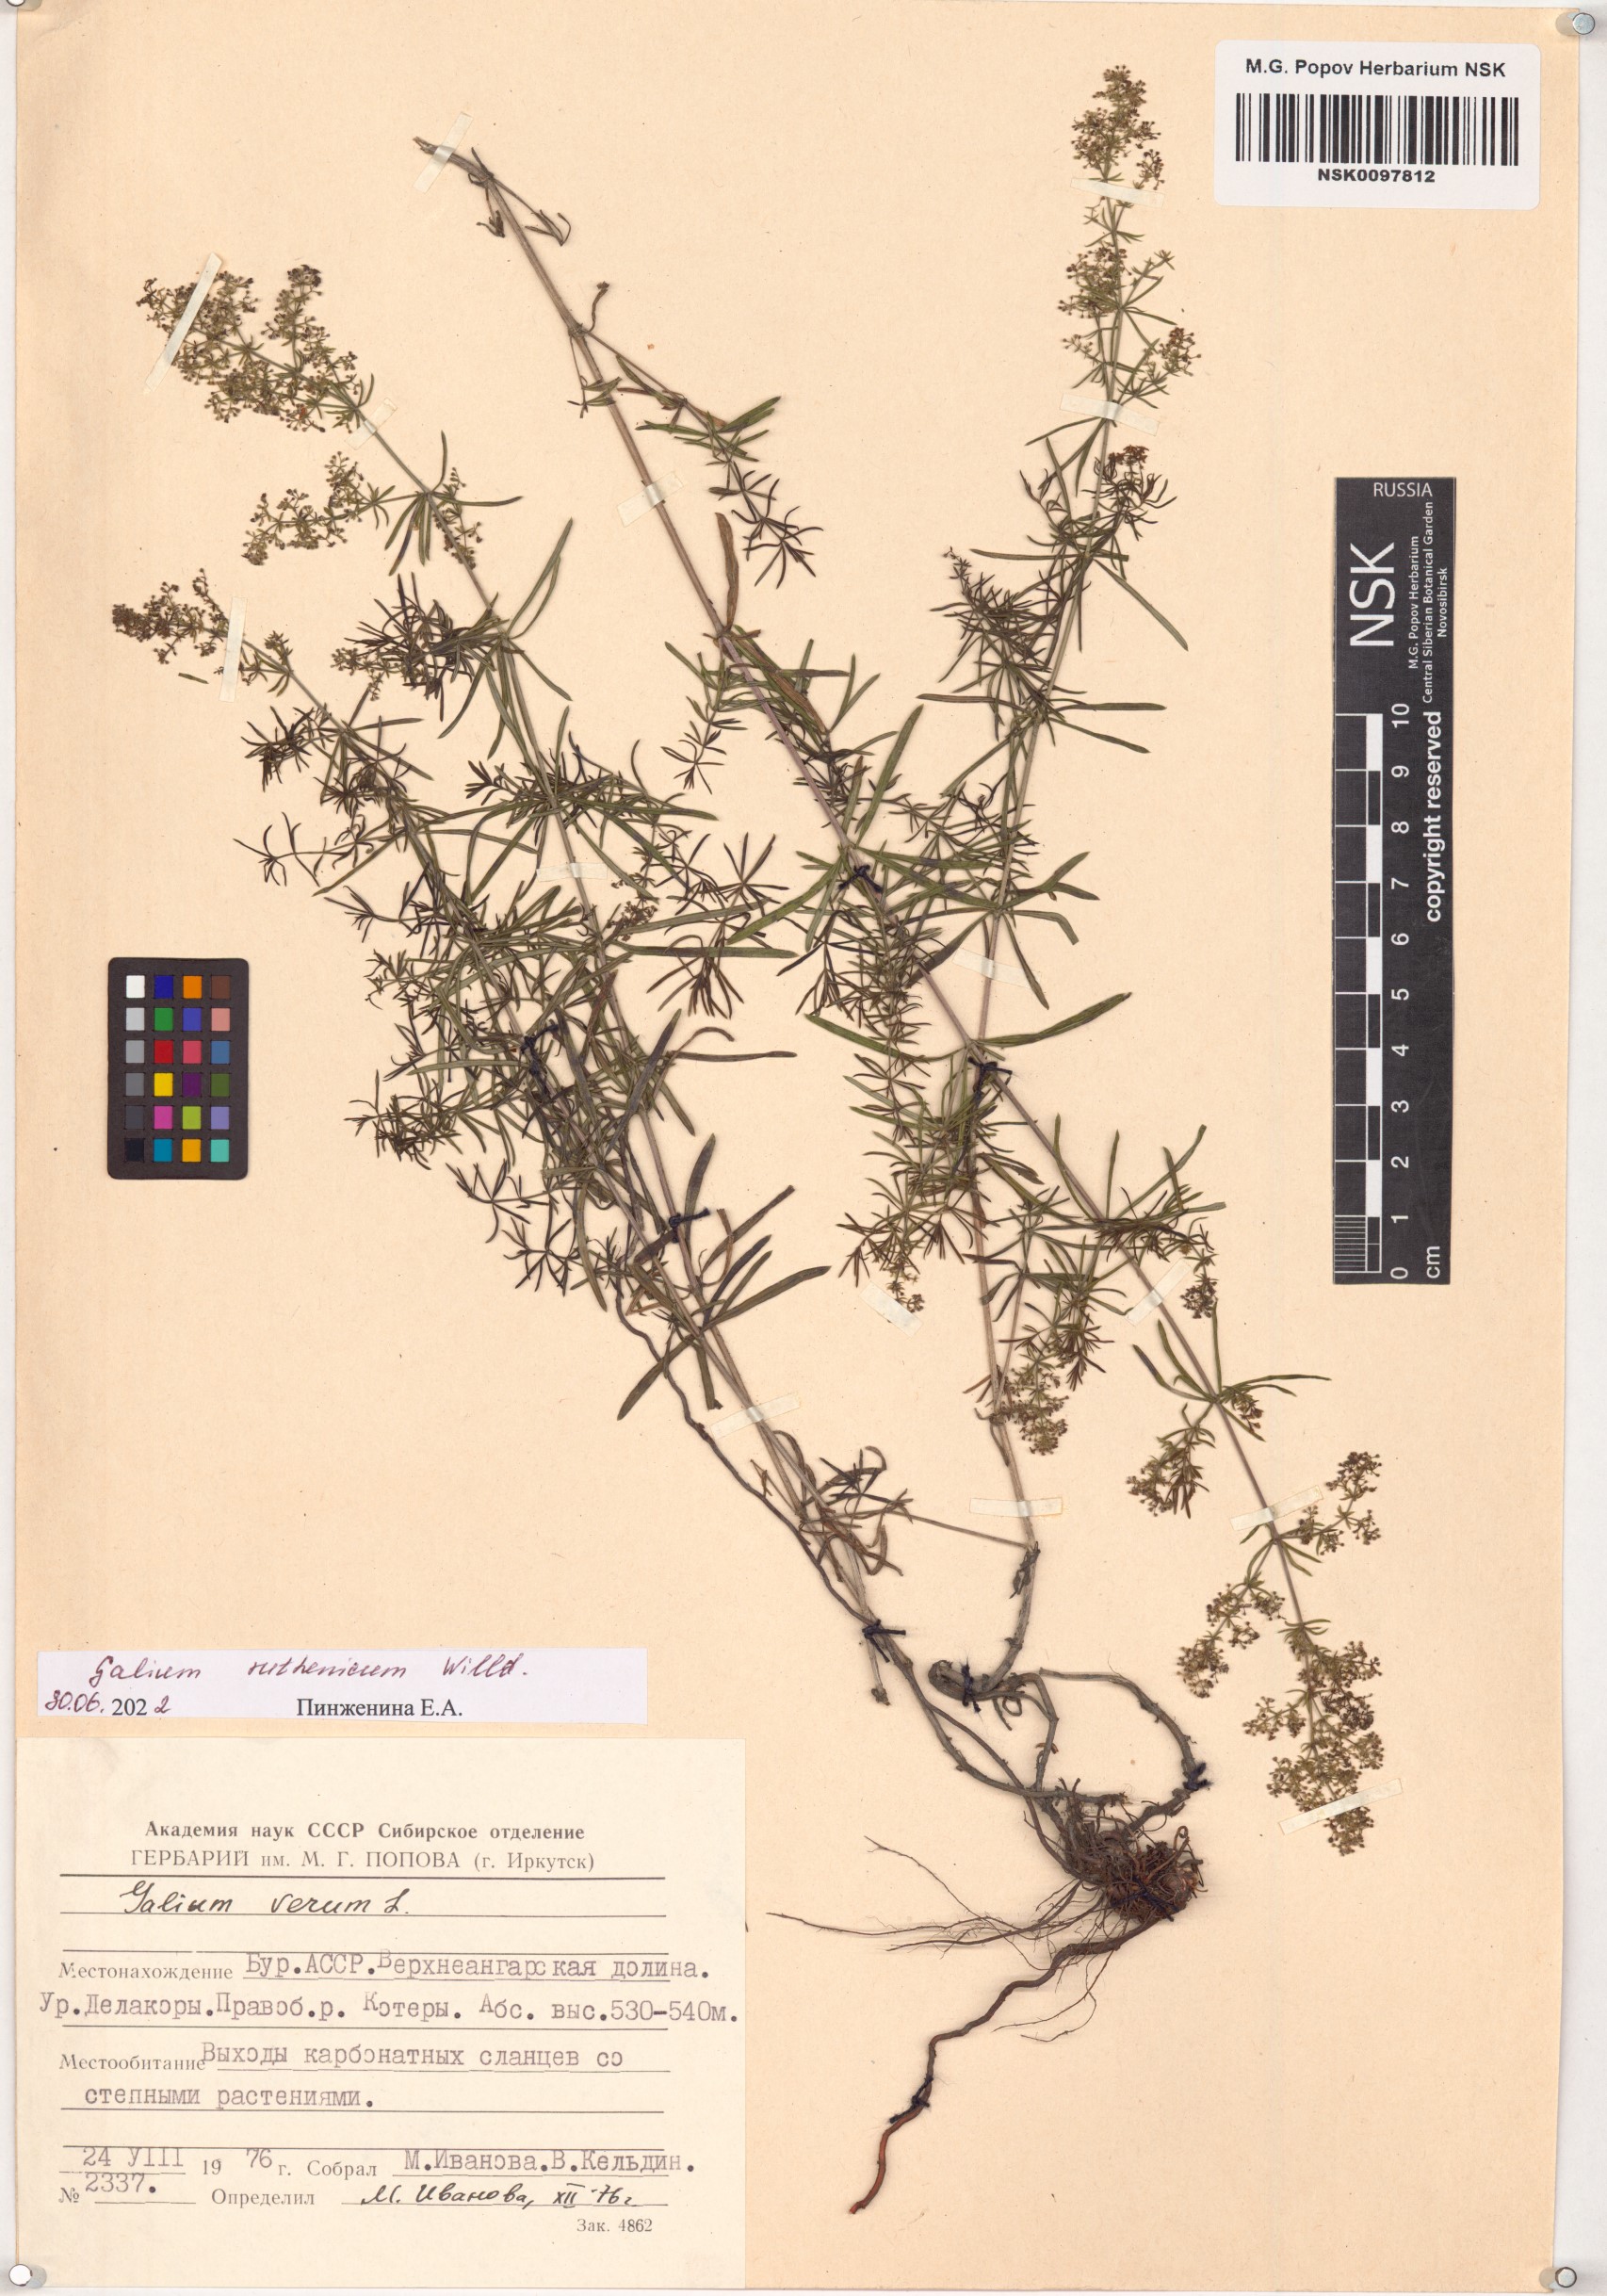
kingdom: Plantae
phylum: Tracheophyta
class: Magnoliopsida
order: Gentianales
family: Rubiaceae
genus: Galium
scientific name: Galium verum
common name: Lady's bedstraw
